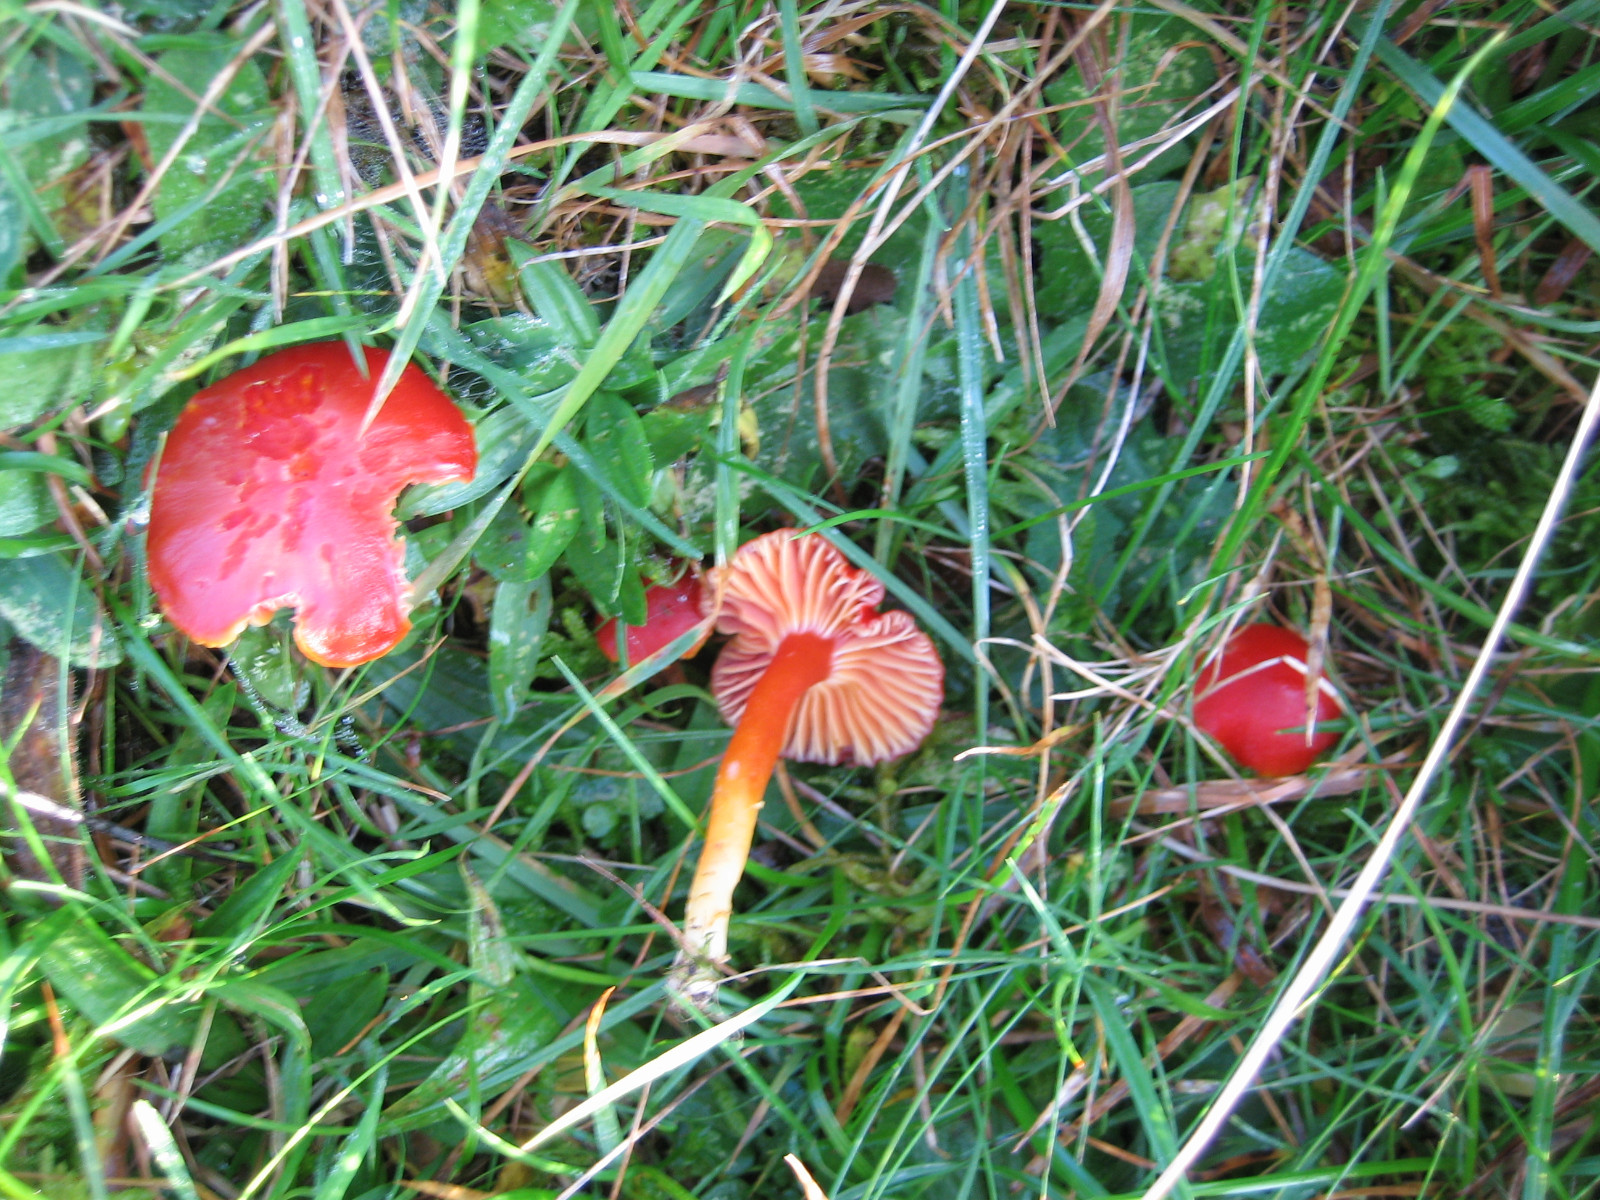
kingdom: Fungi
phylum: Basidiomycota
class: Agaricomycetes
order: Agaricales
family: Hygrophoraceae
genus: Hygrocybe
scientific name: Hygrocybe coccinea
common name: cinnober-vokshat
